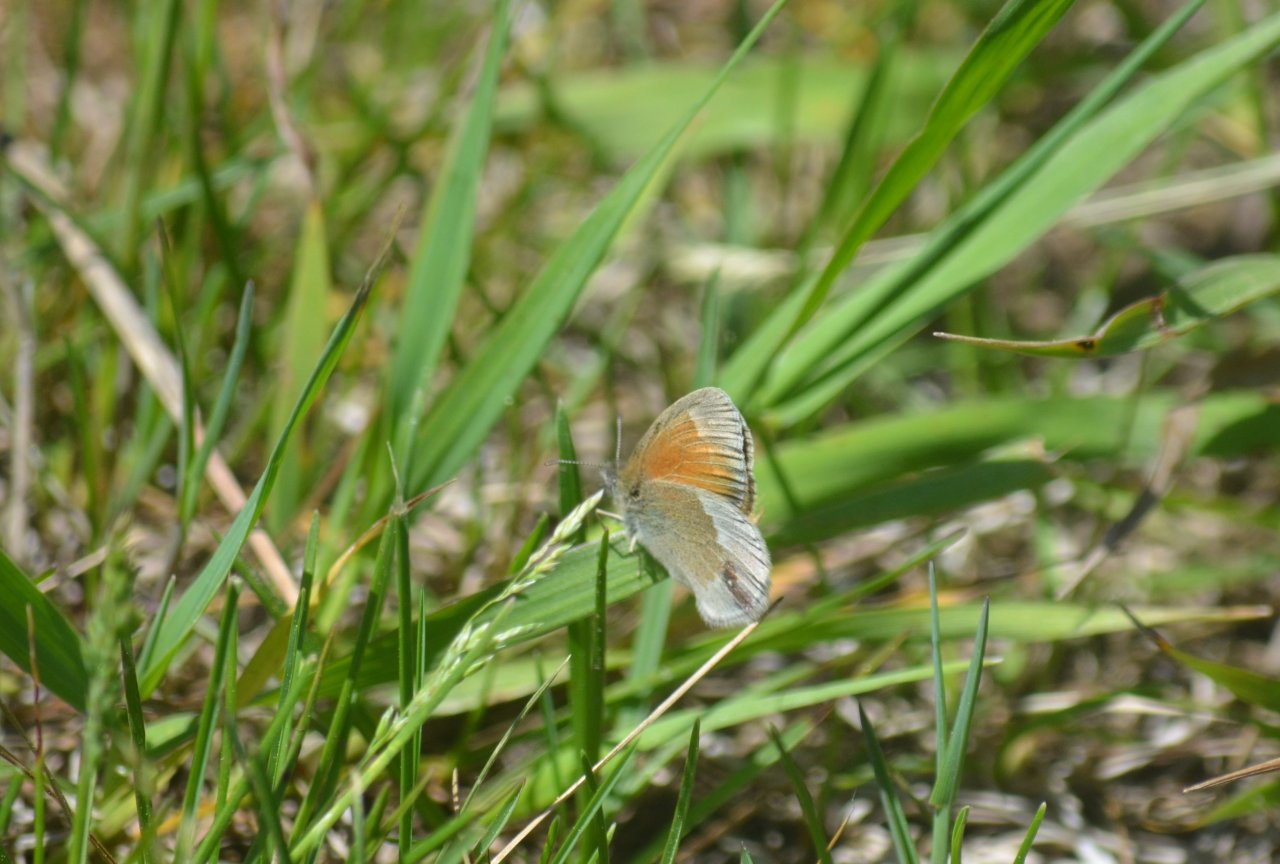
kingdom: Animalia
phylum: Arthropoda
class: Insecta
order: Lepidoptera
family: Nymphalidae
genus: Coenonympha
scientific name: Coenonympha tullia
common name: Large Heath
